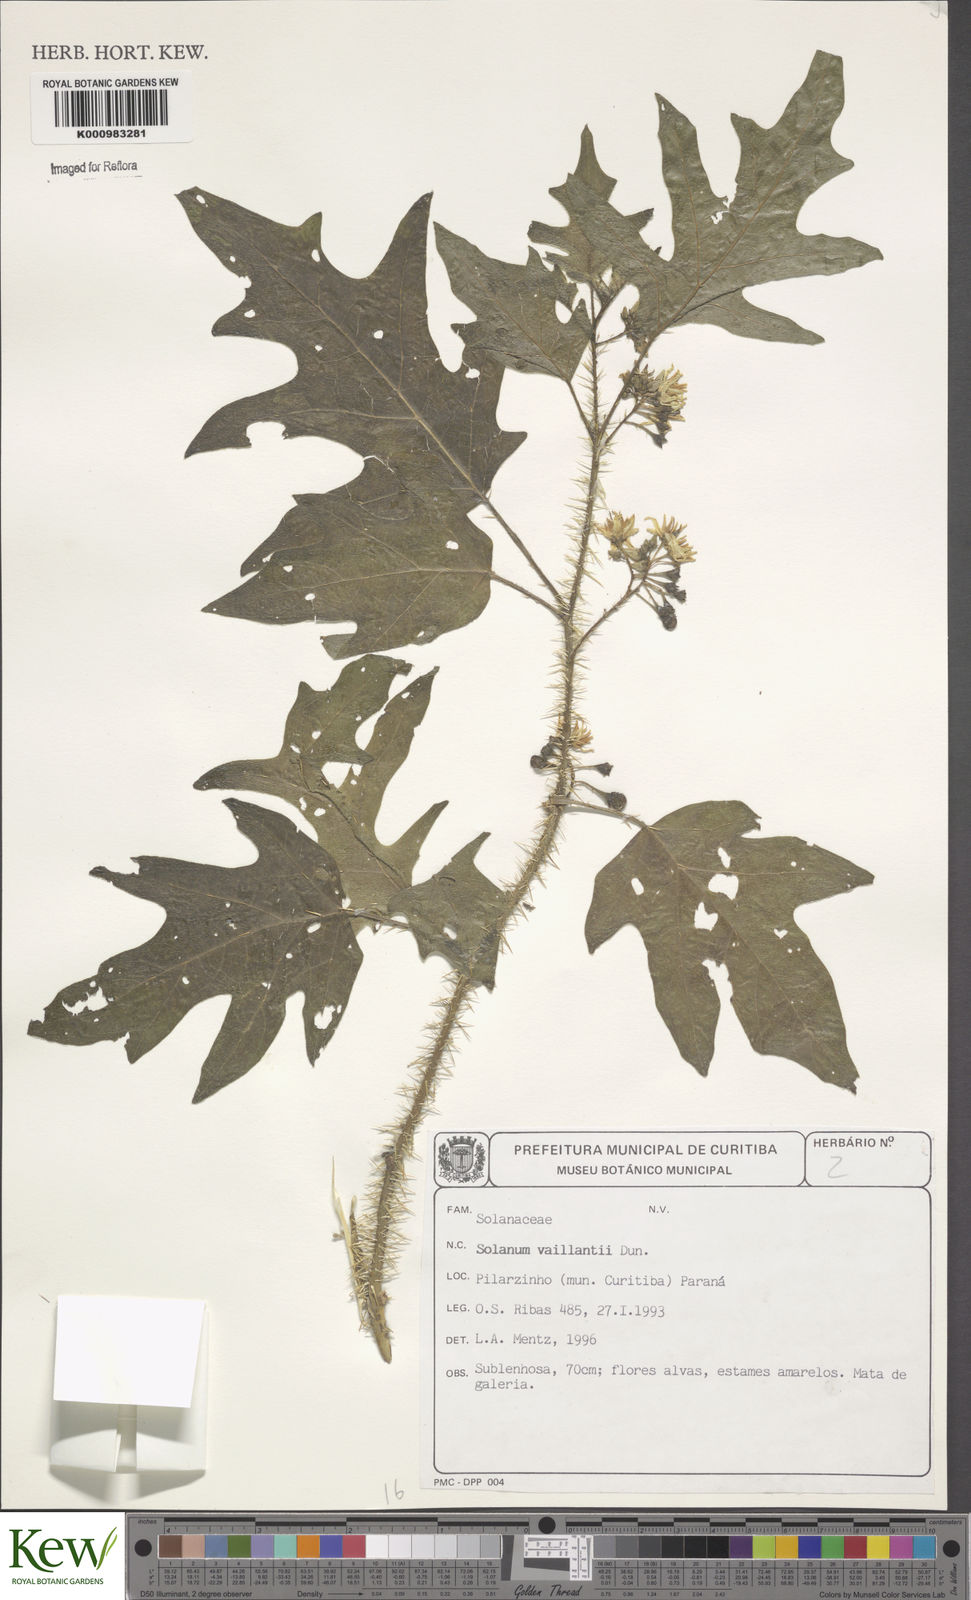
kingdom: Plantae
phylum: Tracheophyta
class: Magnoliopsida
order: Solanales
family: Solanaceae
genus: Solanum
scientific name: Solanum vaillantii
